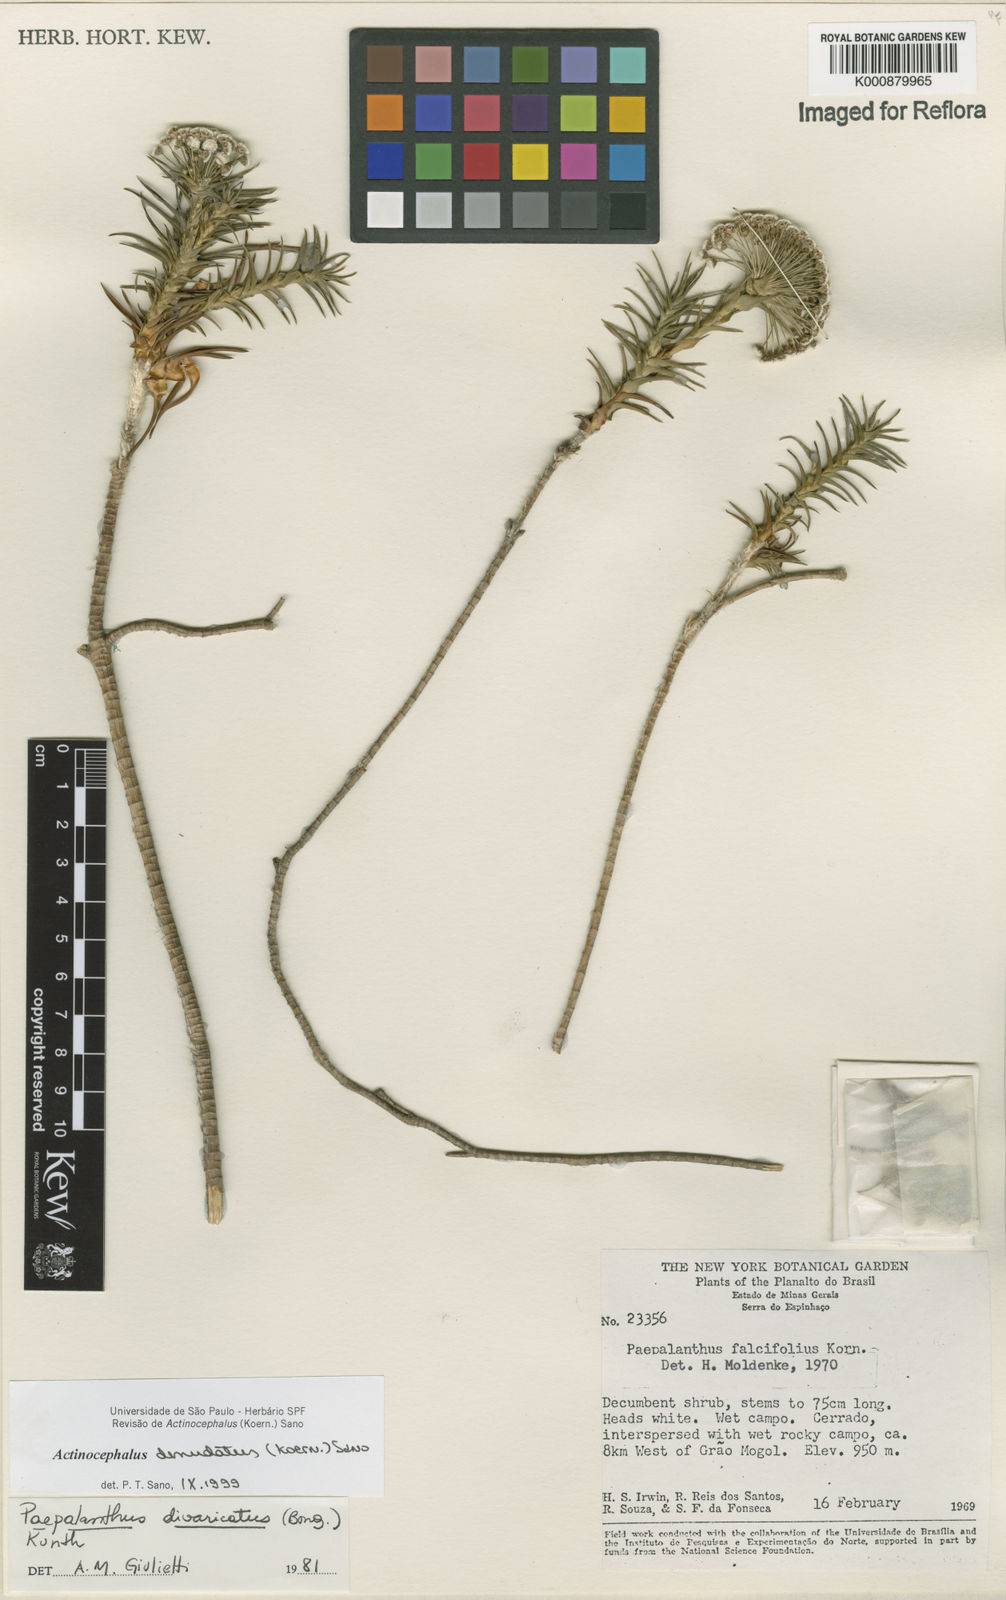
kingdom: Plantae
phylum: Tracheophyta
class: Liliopsida
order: Poales
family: Eriocaulaceae
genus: Paepalanthus
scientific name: Paepalanthus
